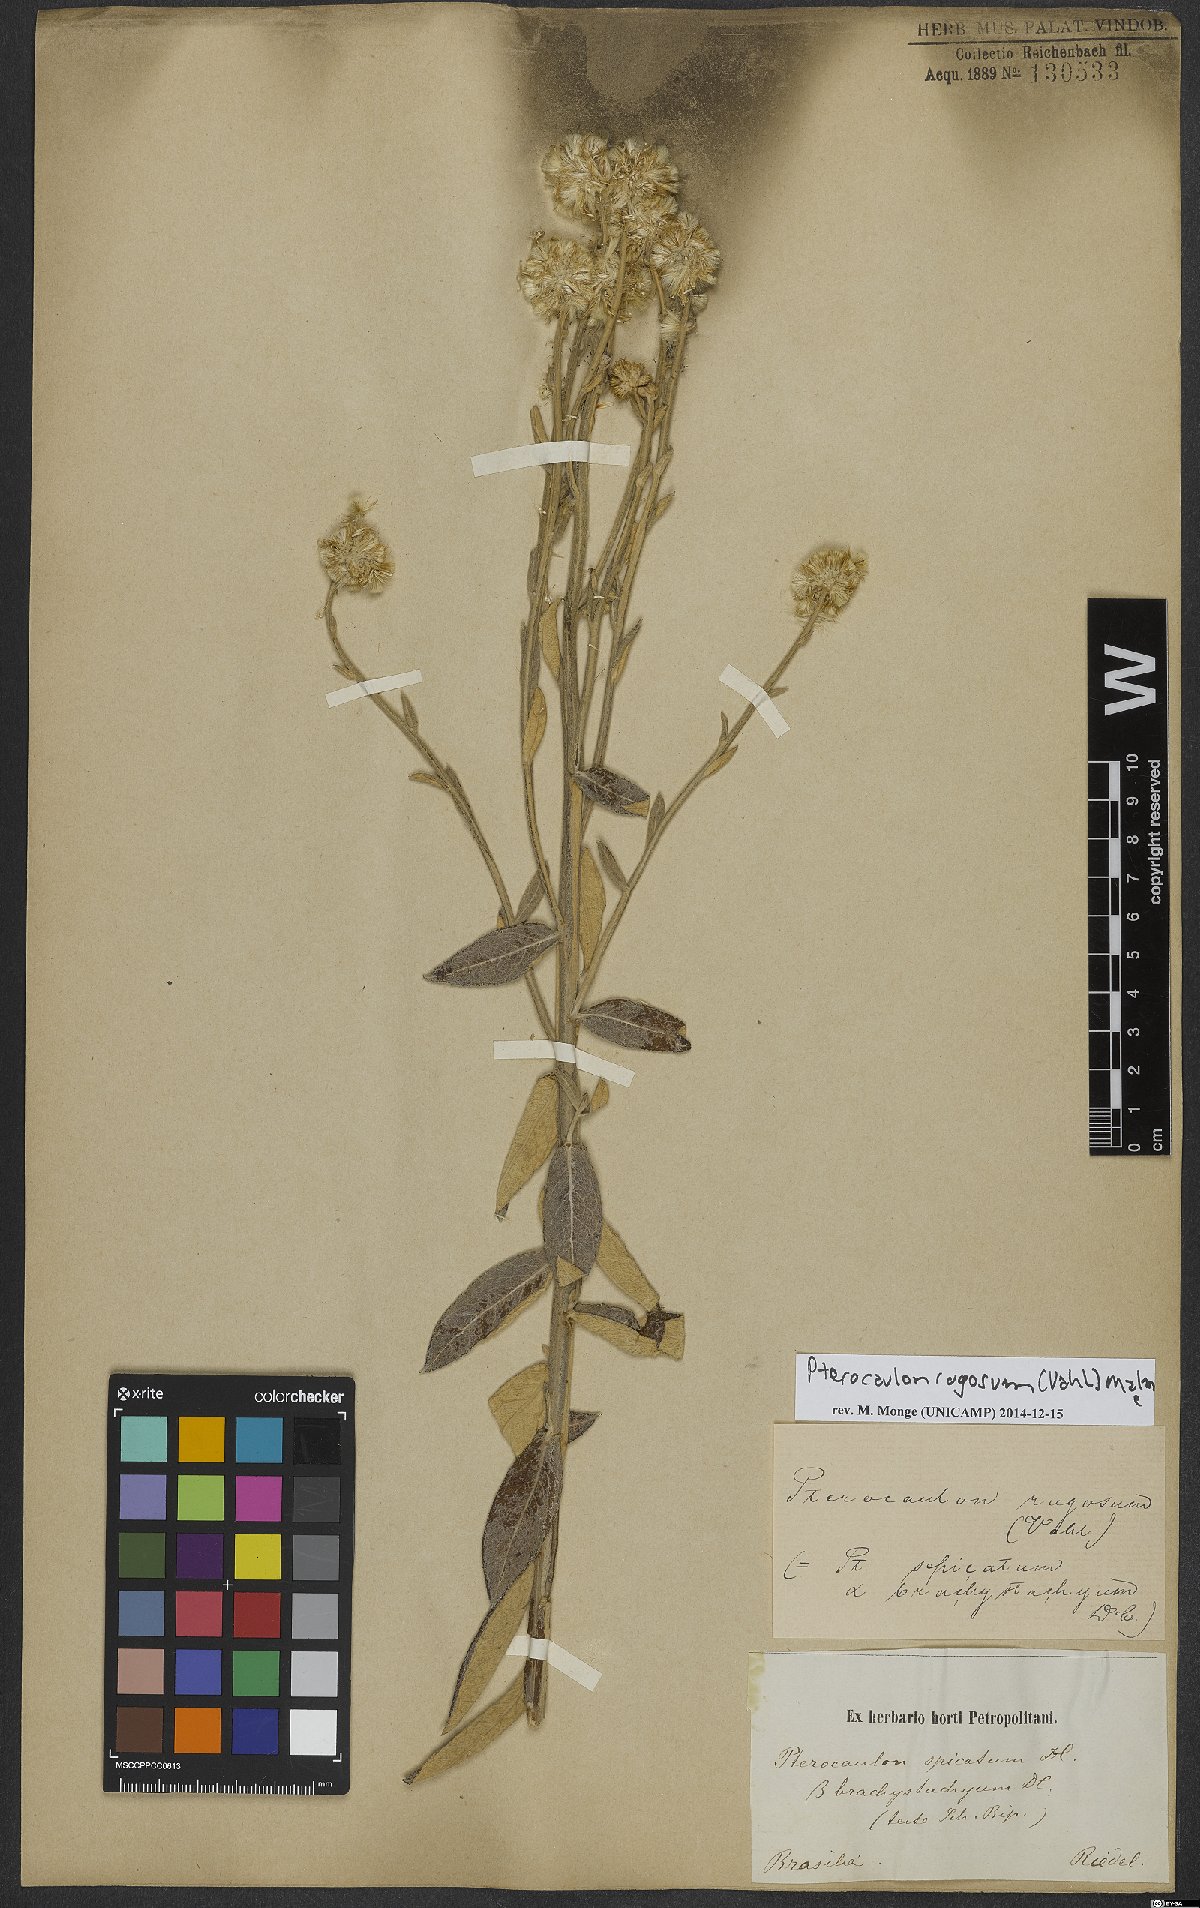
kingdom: Plantae
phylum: Tracheophyta
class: Magnoliopsida
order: Asterales
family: Asteraceae
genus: Pterocaulon
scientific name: Pterocaulon rugosum
